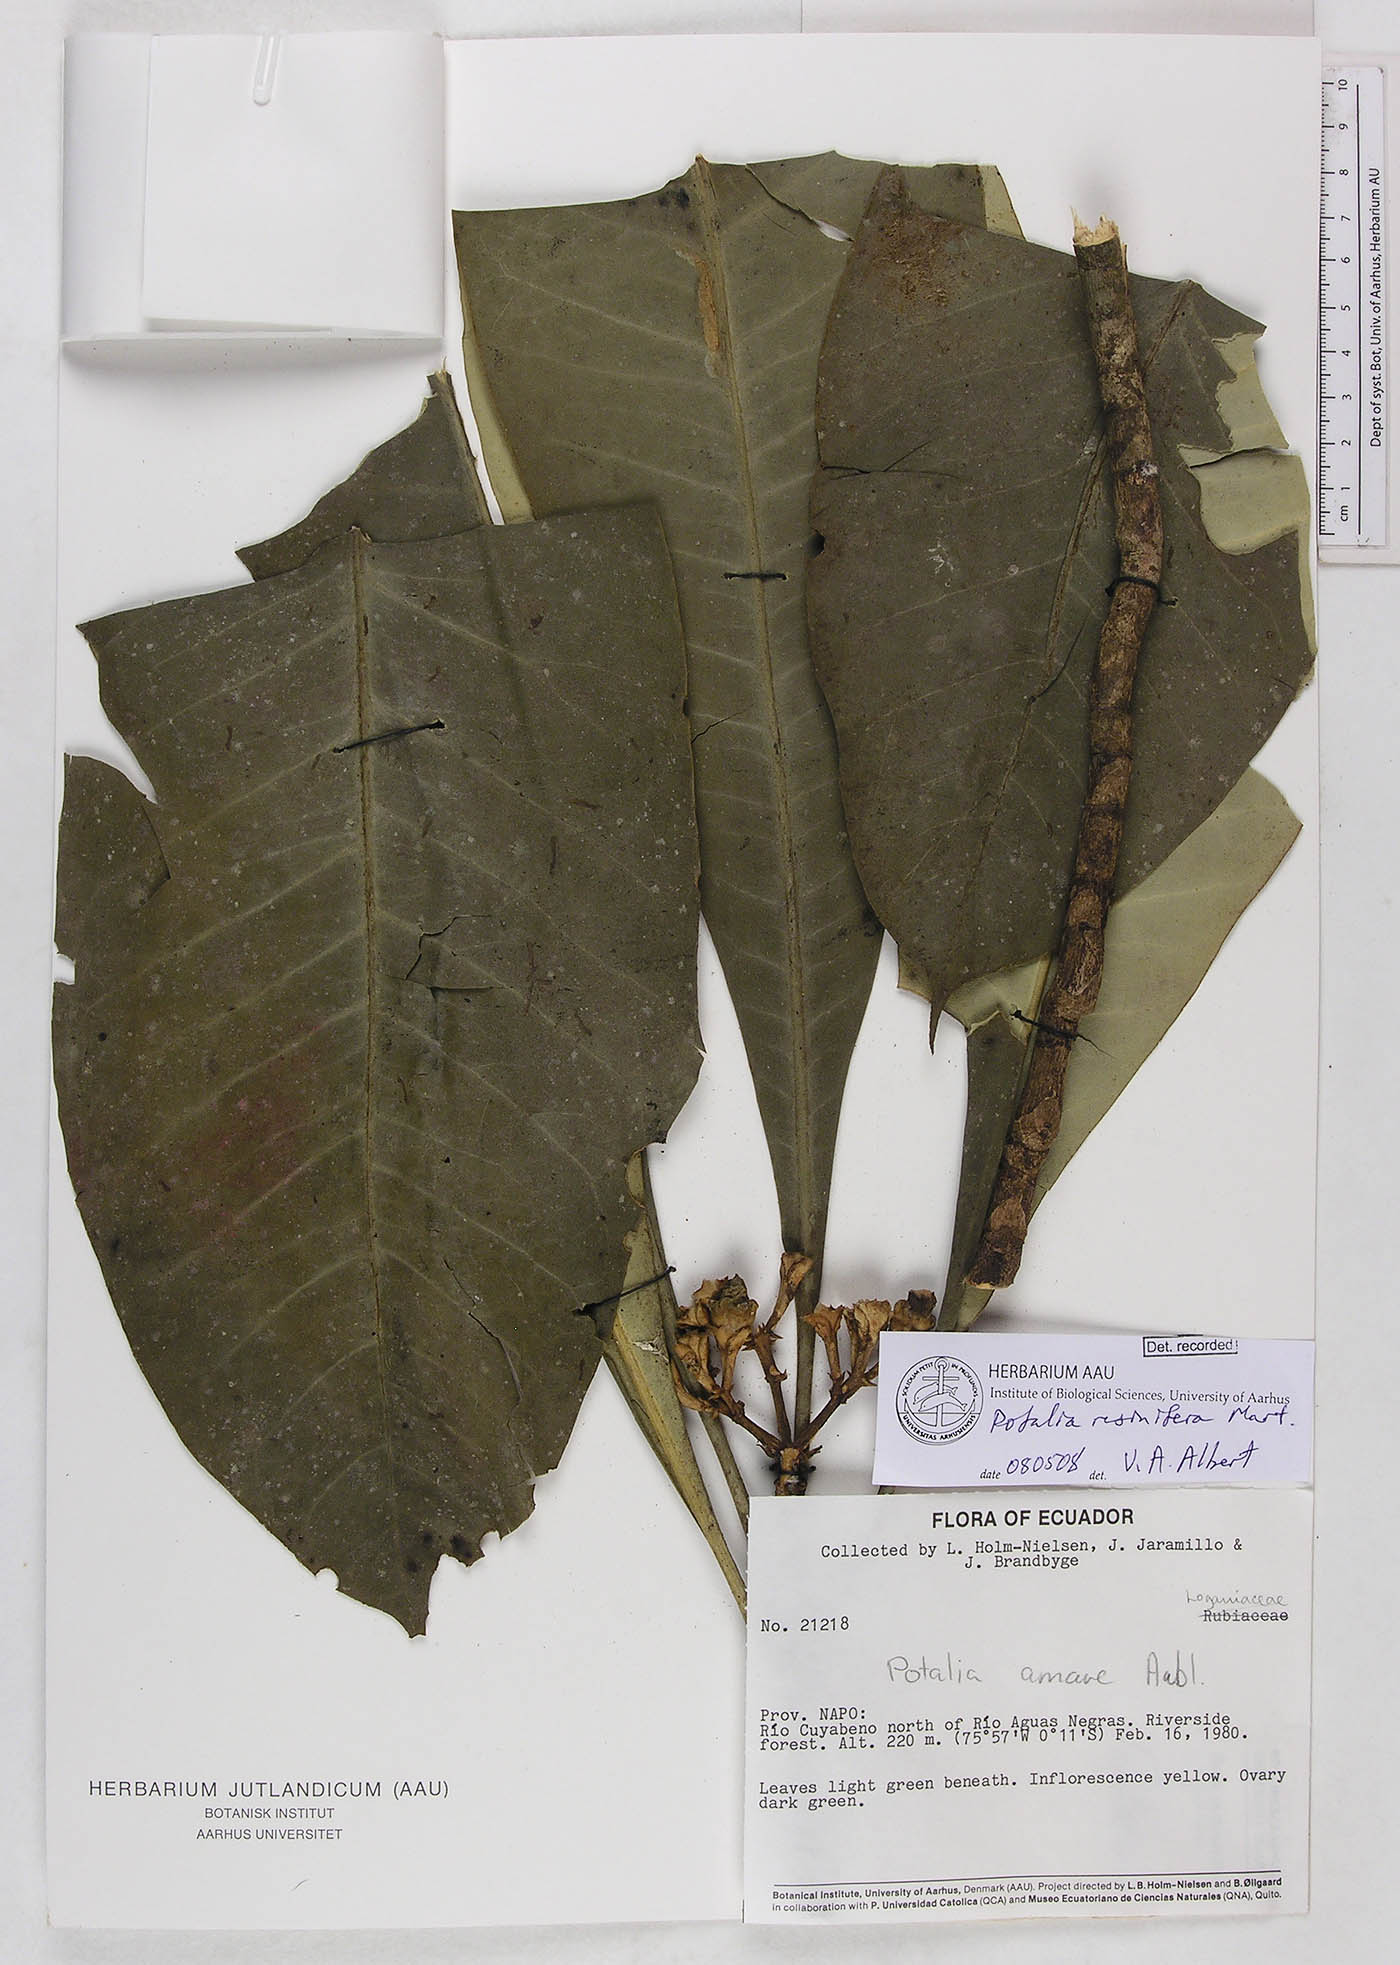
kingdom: Plantae
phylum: Tracheophyta
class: Magnoliopsida
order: Gentianales
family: Gentianaceae
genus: Potalia
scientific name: Potalia resinifera
